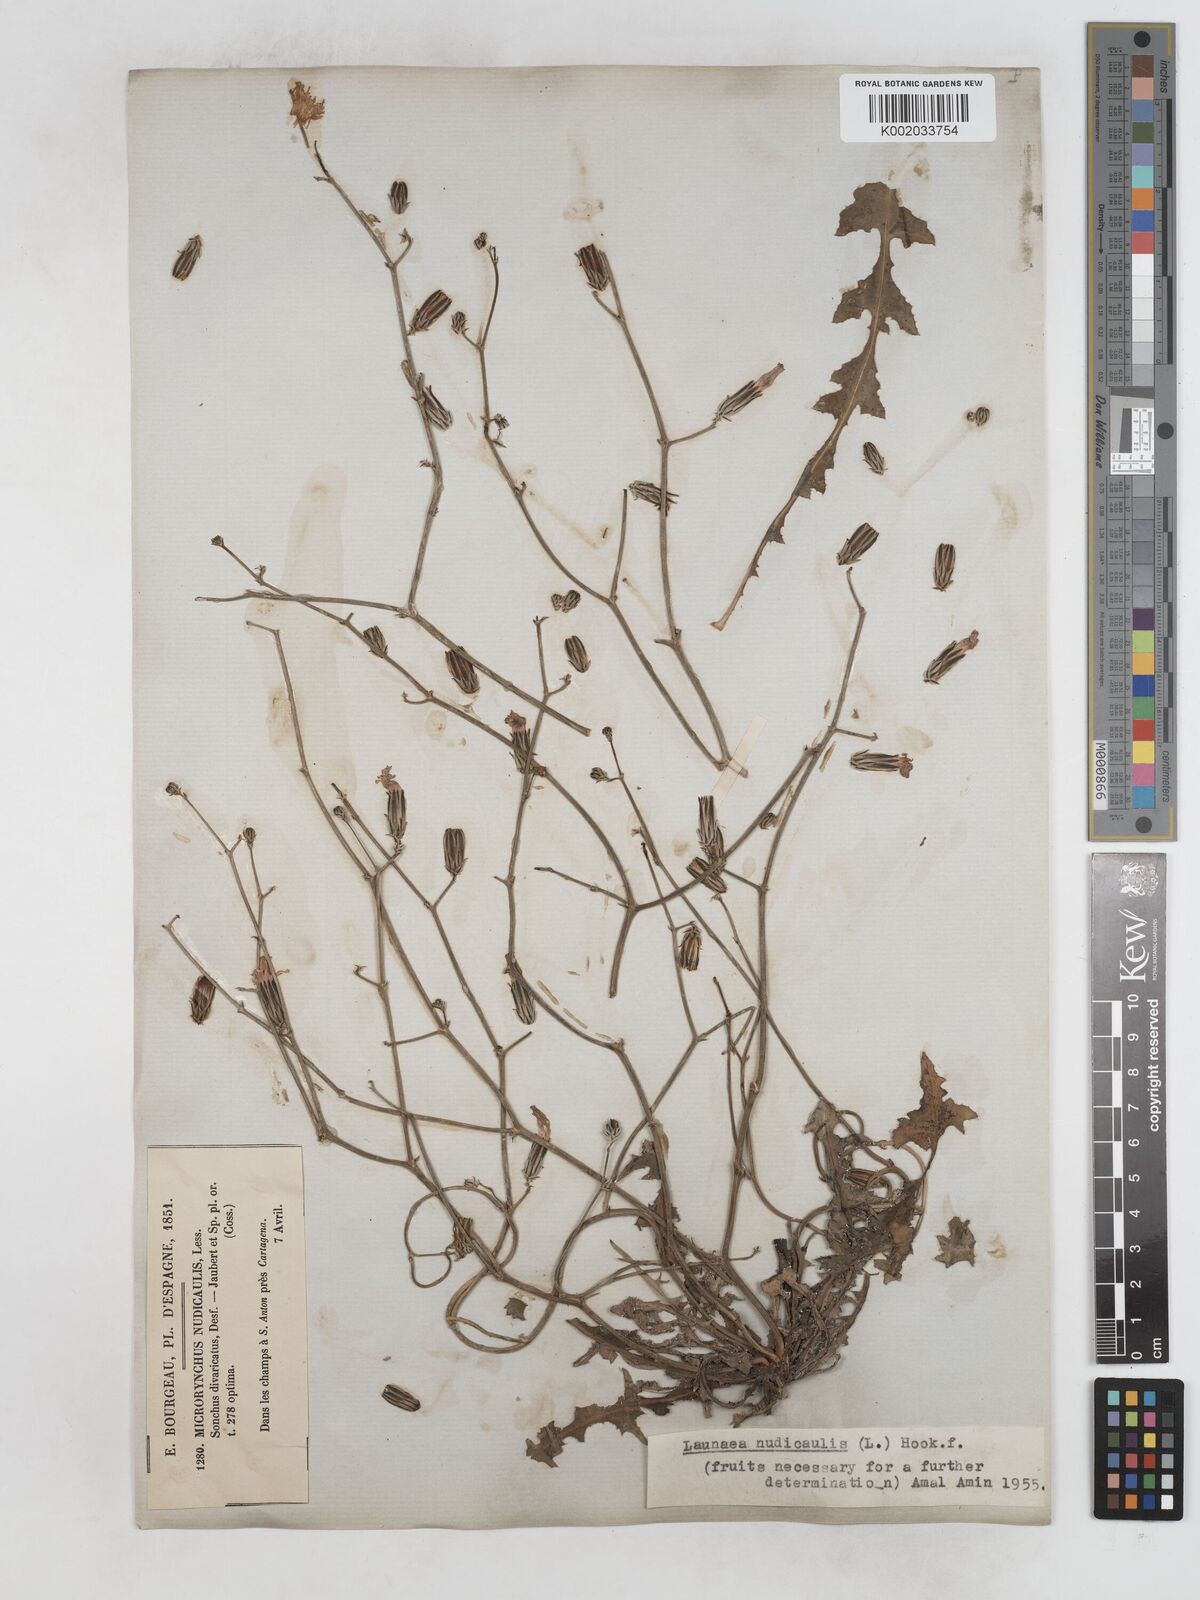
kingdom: Plantae
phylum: Tracheophyta
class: Magnoliopsida
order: Asterales
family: Asteraceae
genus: Launaea
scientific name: Launaea nudicaulis
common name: Naked launaea
